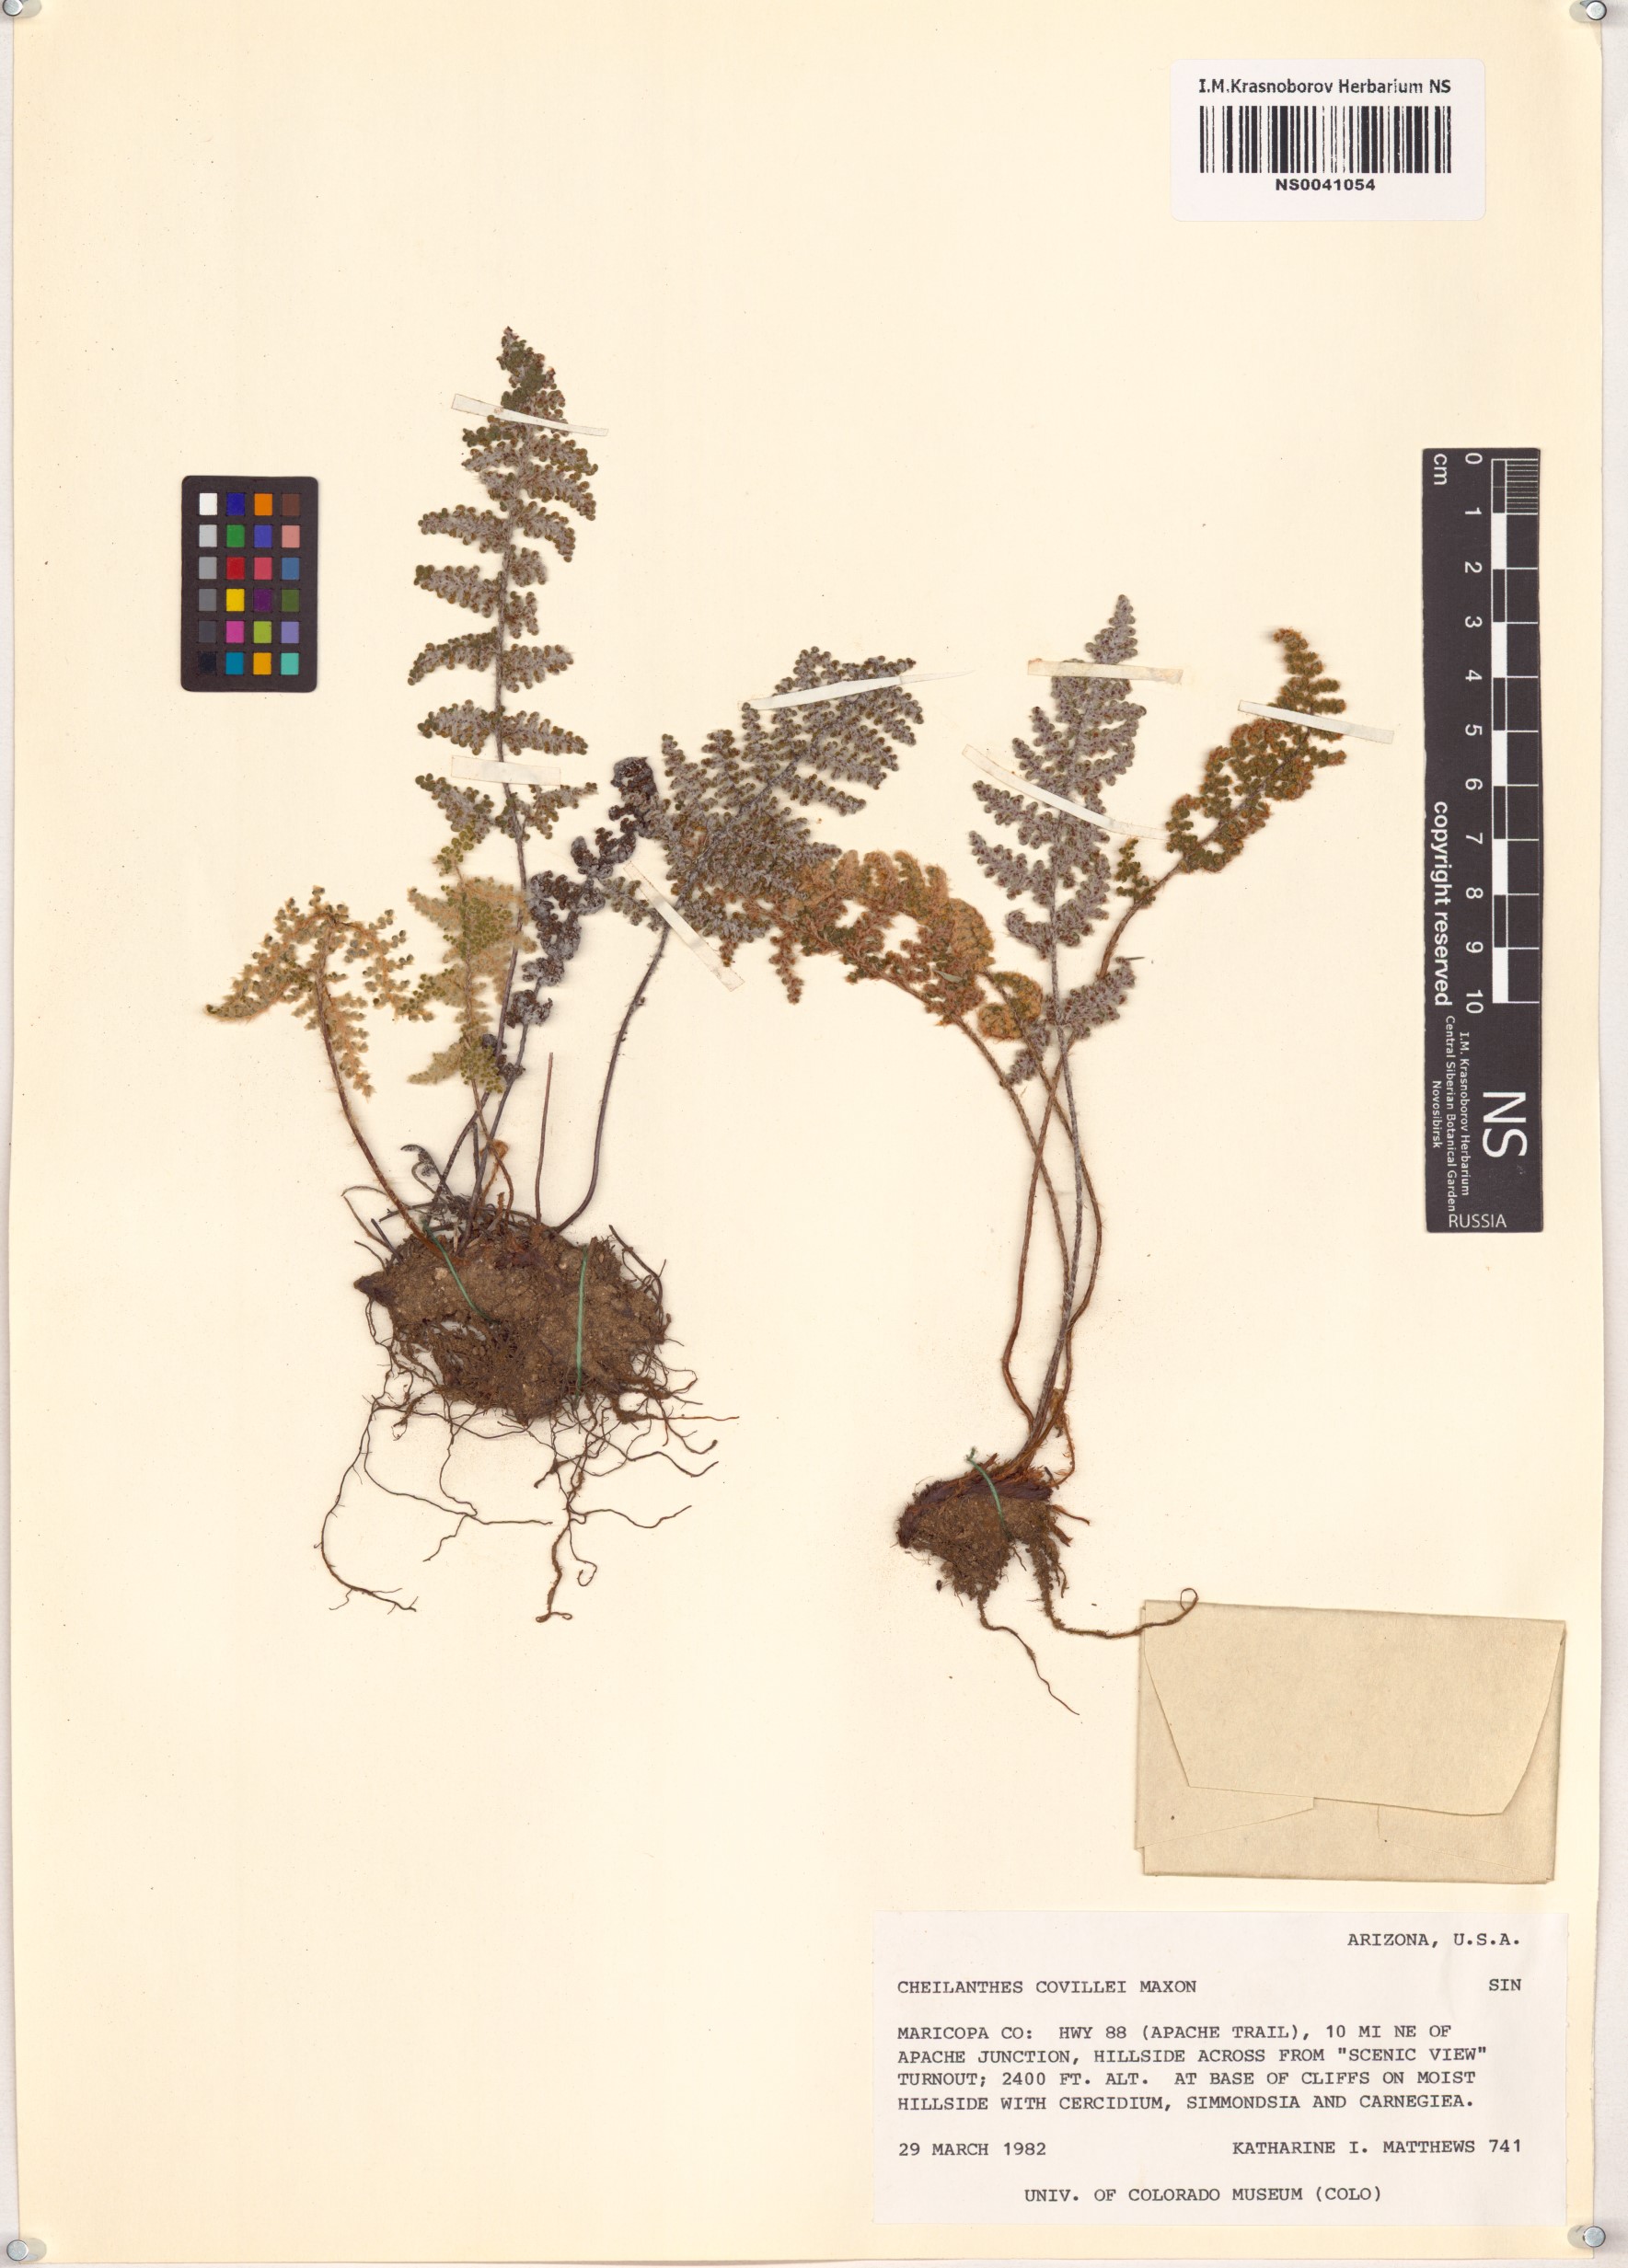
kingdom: Plantae
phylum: Tracheophyta
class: Polypodiopsida
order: Polypodiales
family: Pteridaceae
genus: Myriopteris
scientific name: Myriopteris covillei
